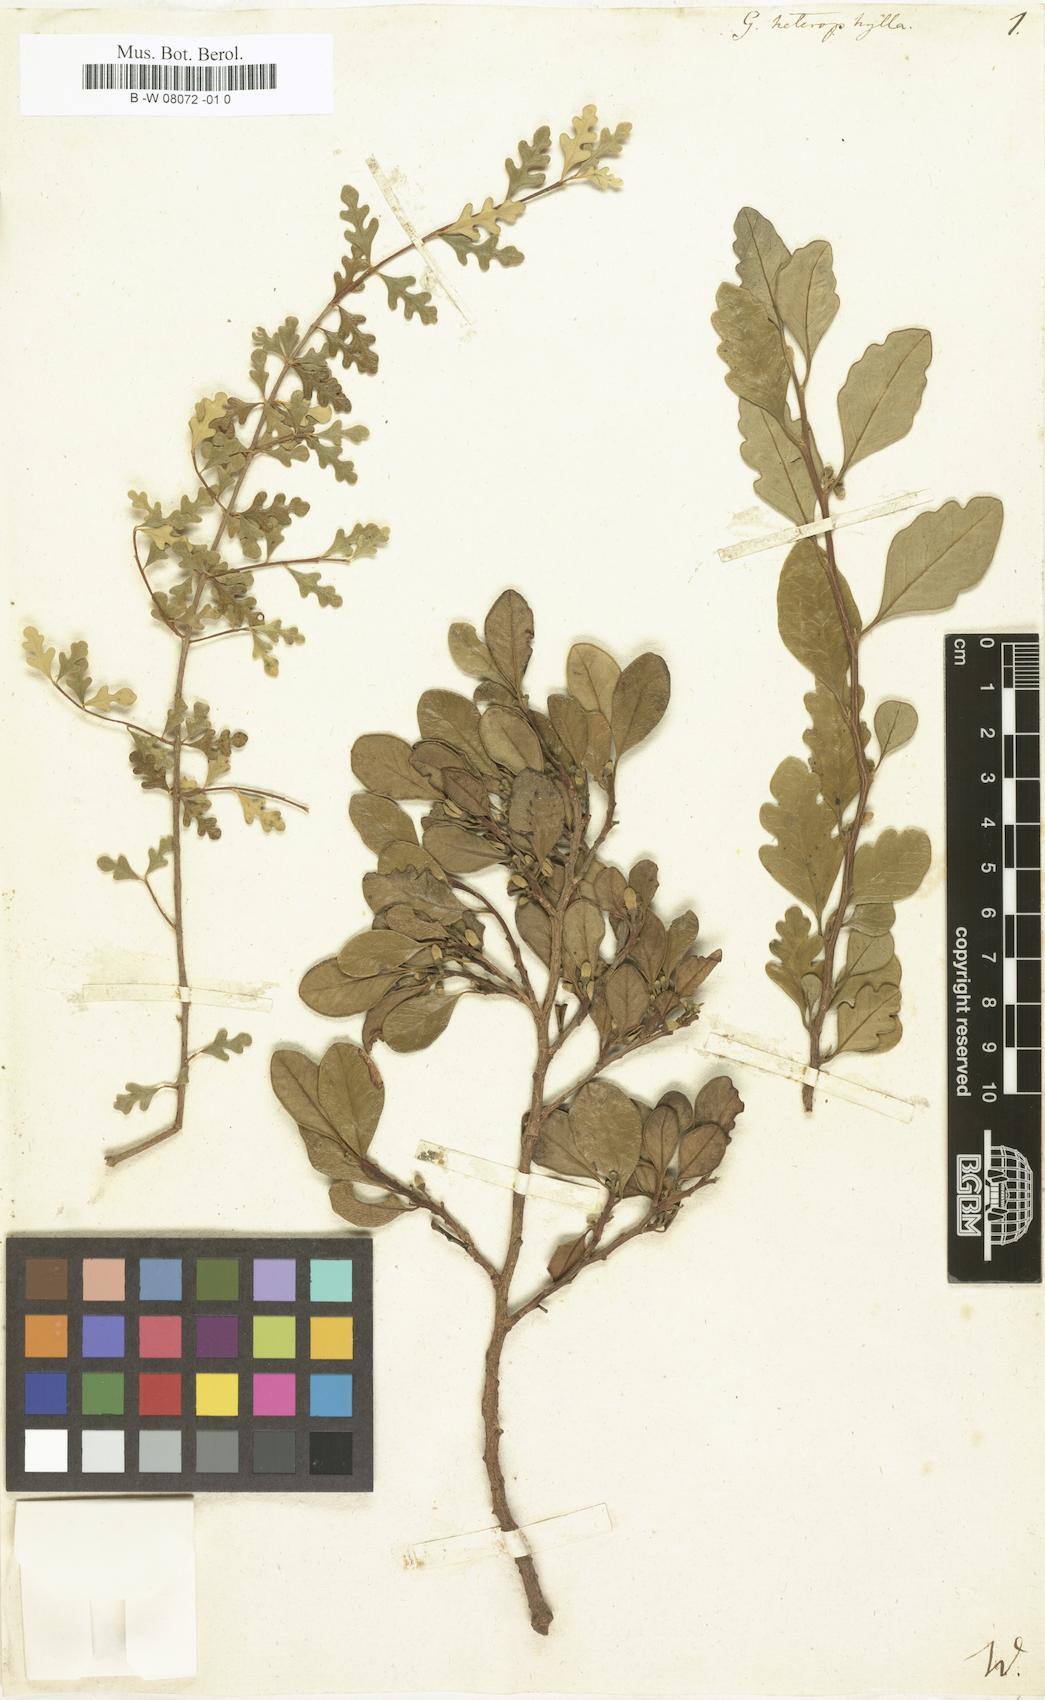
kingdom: Plantae
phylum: Tracheophyta
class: Magnoliopsida
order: Sapindales
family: Meliaceae
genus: Turraea
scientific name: Turraea thouarsiana
